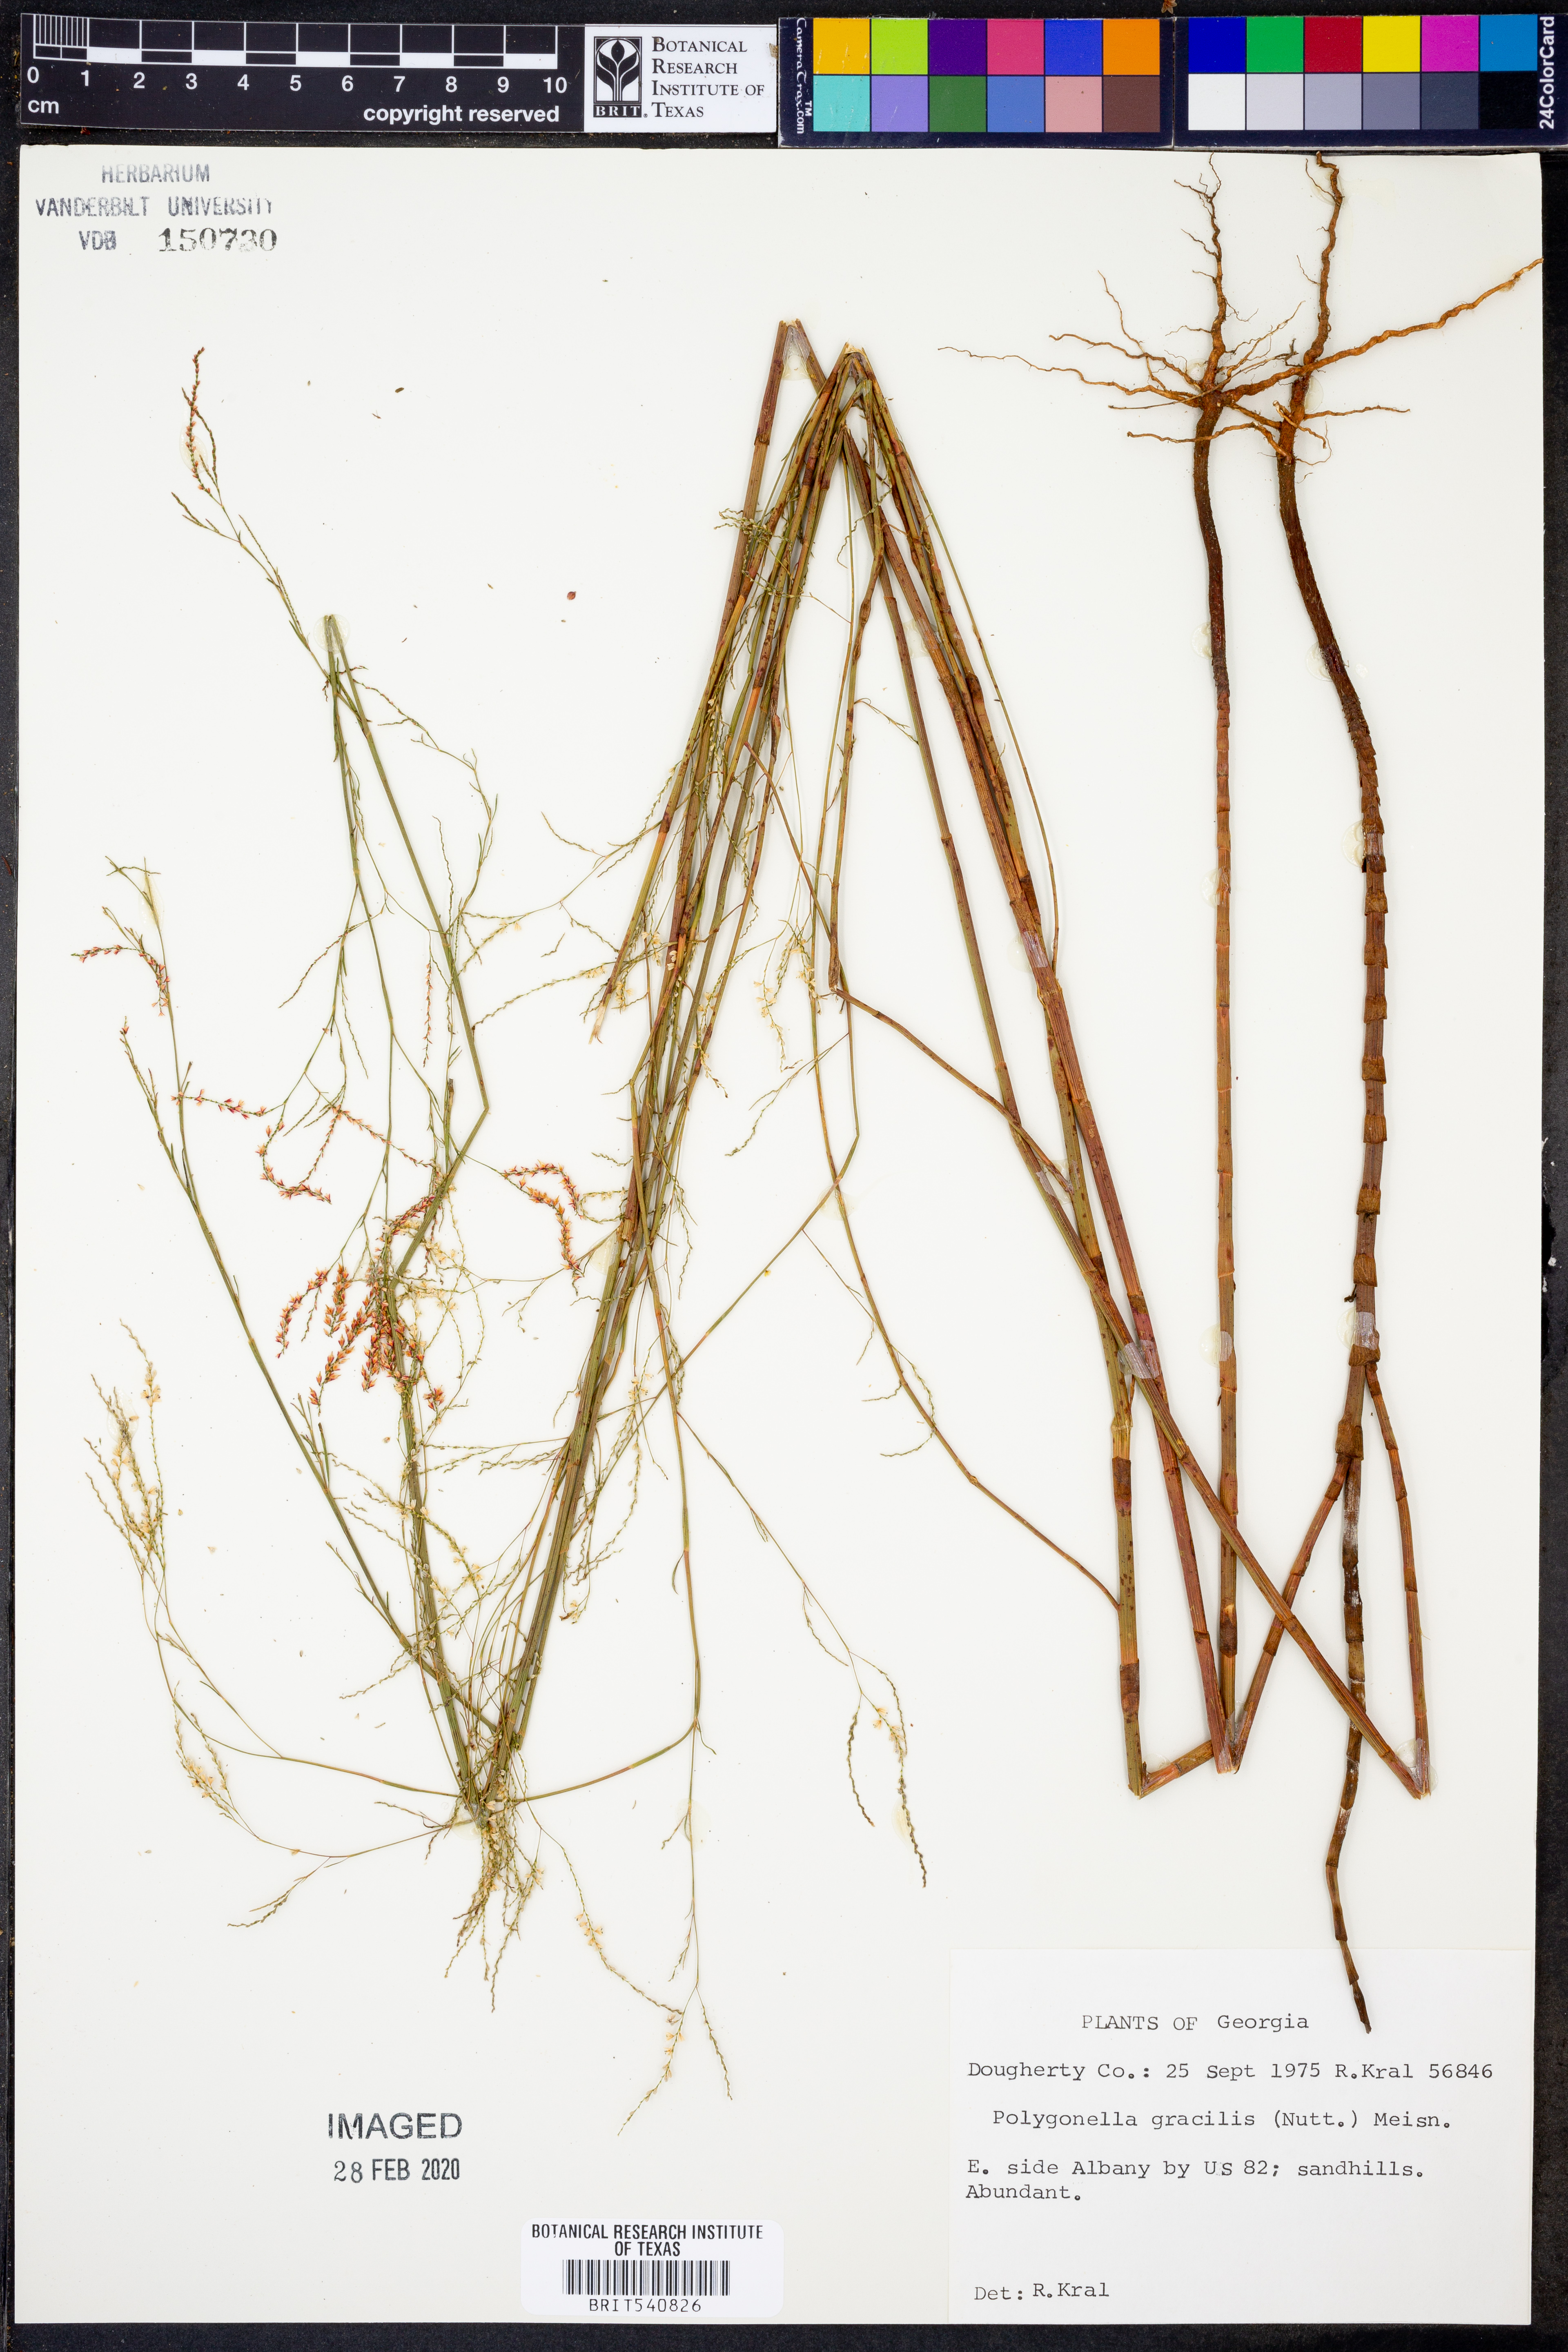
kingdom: Plantae
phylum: Tracheophyta
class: Magnoliopsida
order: Caryophyllales
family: Polygonaceae
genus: Polygonella
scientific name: Polygonella gracilis
